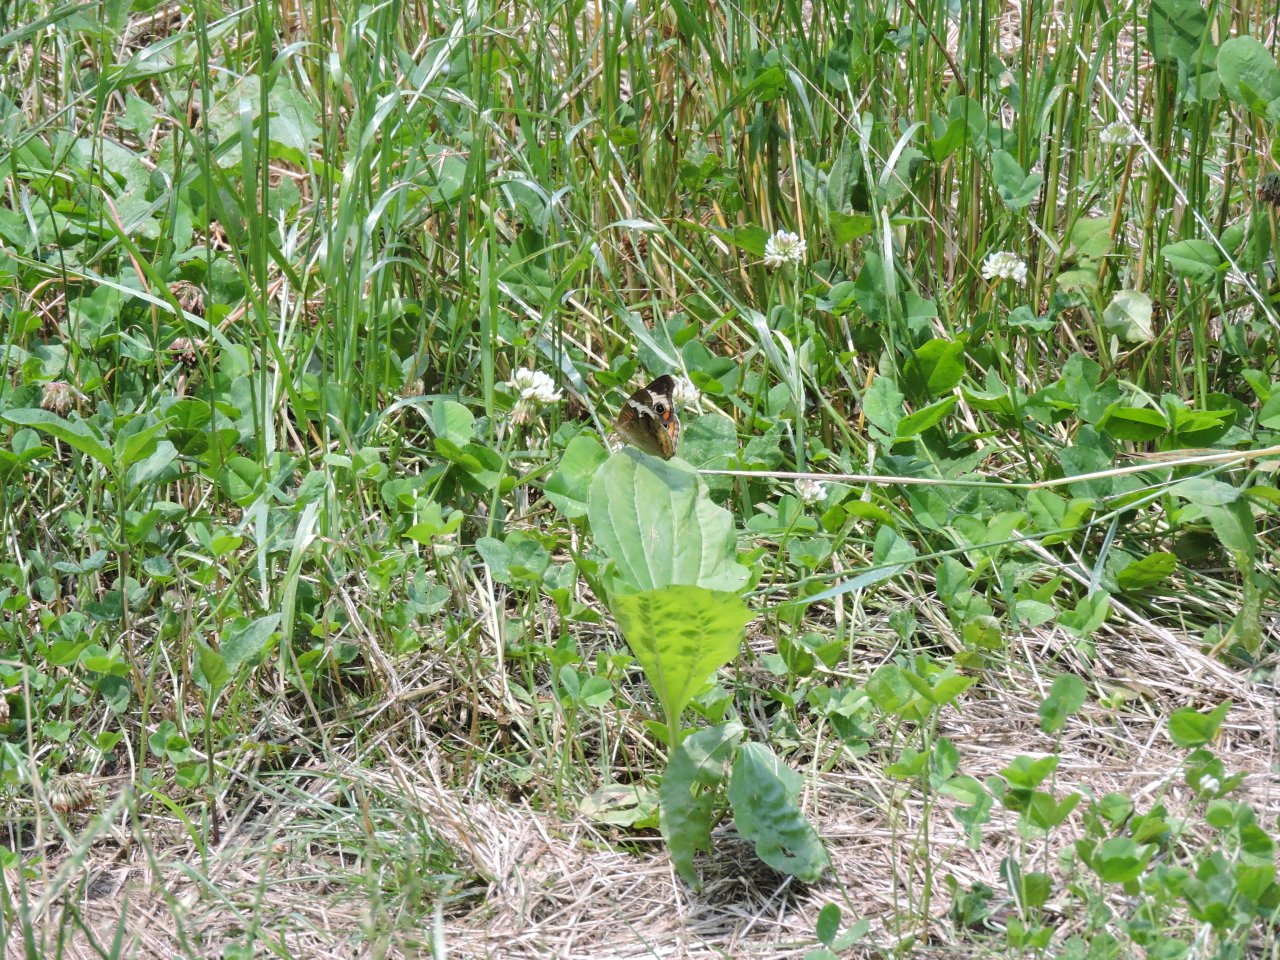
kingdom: Animalia
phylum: Arthropoda
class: Insecta
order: Lepidoptera
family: Nymphalidae
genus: Junonia
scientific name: Junonia coenia
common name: Common Buckeye
